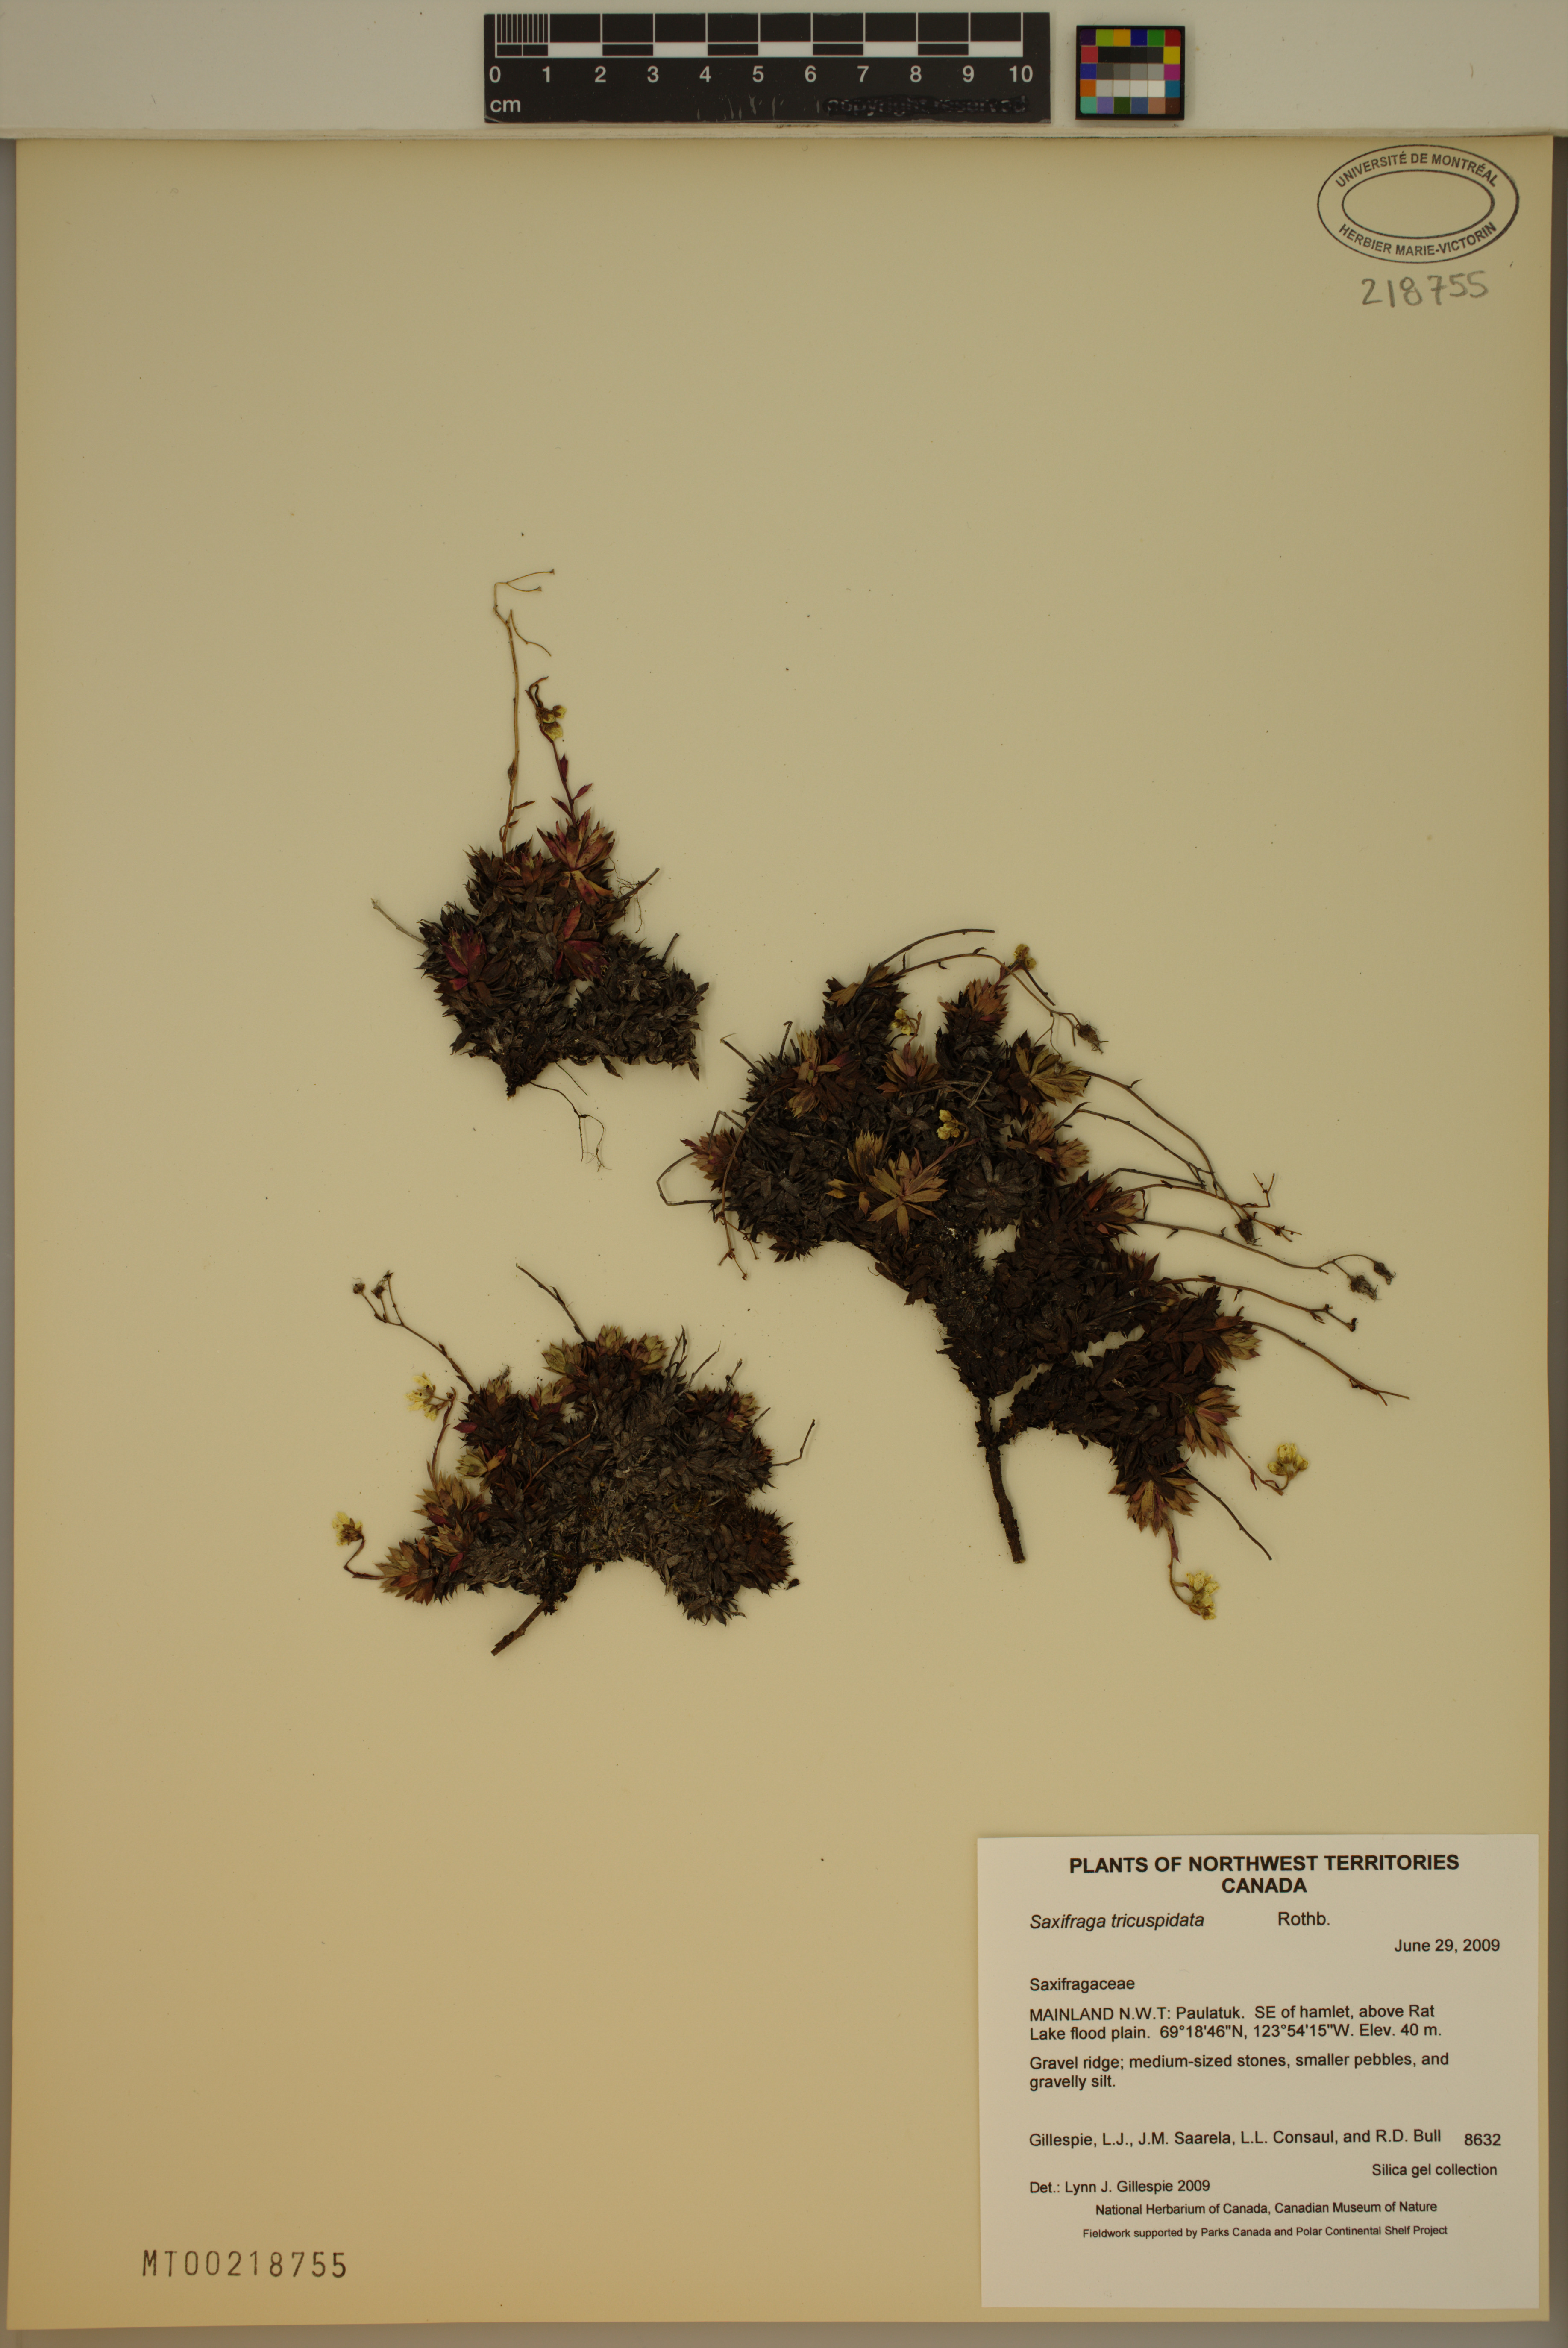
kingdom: Plantae
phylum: Tracheophyta
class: Magnoliopsida
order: Saxifragales
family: Saxifragaceae
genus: Saxifraga
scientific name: Saxifraga tricuspidata
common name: Prickly saxifrage
